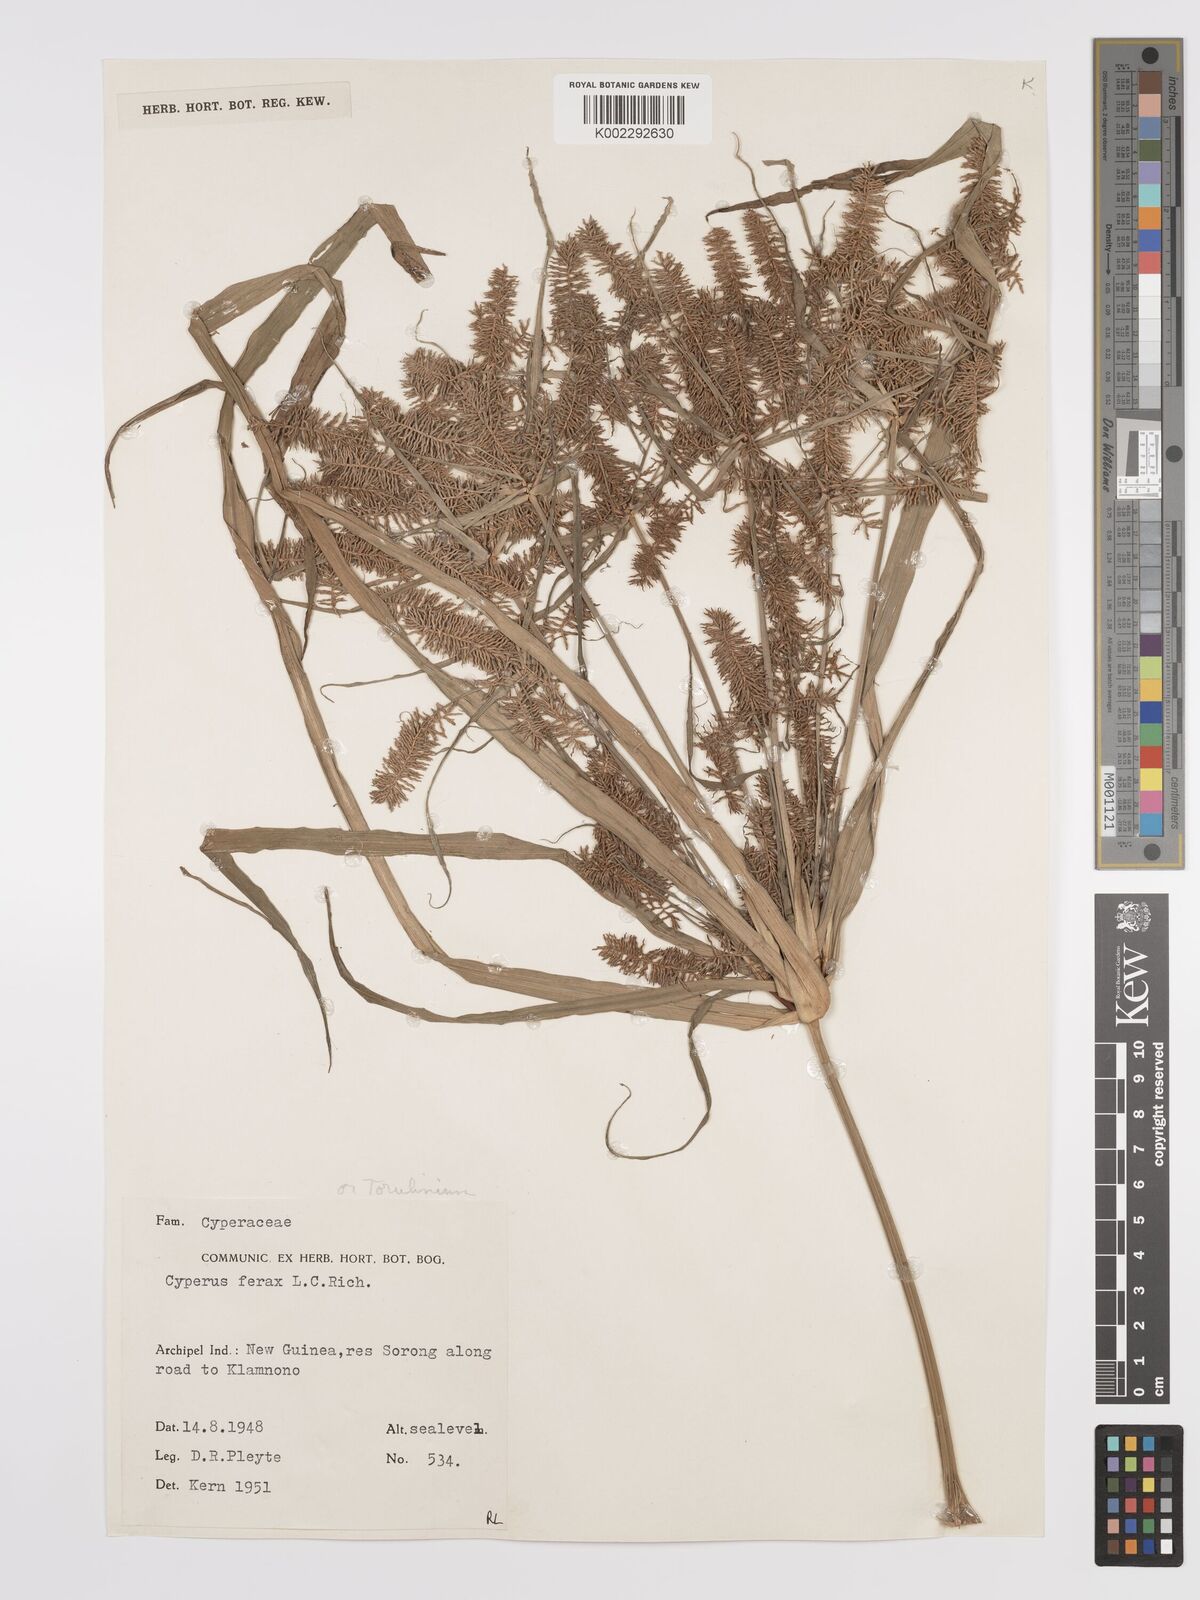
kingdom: Plantae
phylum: Tracheophyta
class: Liliopsida
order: Poales
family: Cyperaceae
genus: Cyperus
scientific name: Cyperus odoratus
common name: Fragrant flatsedge
